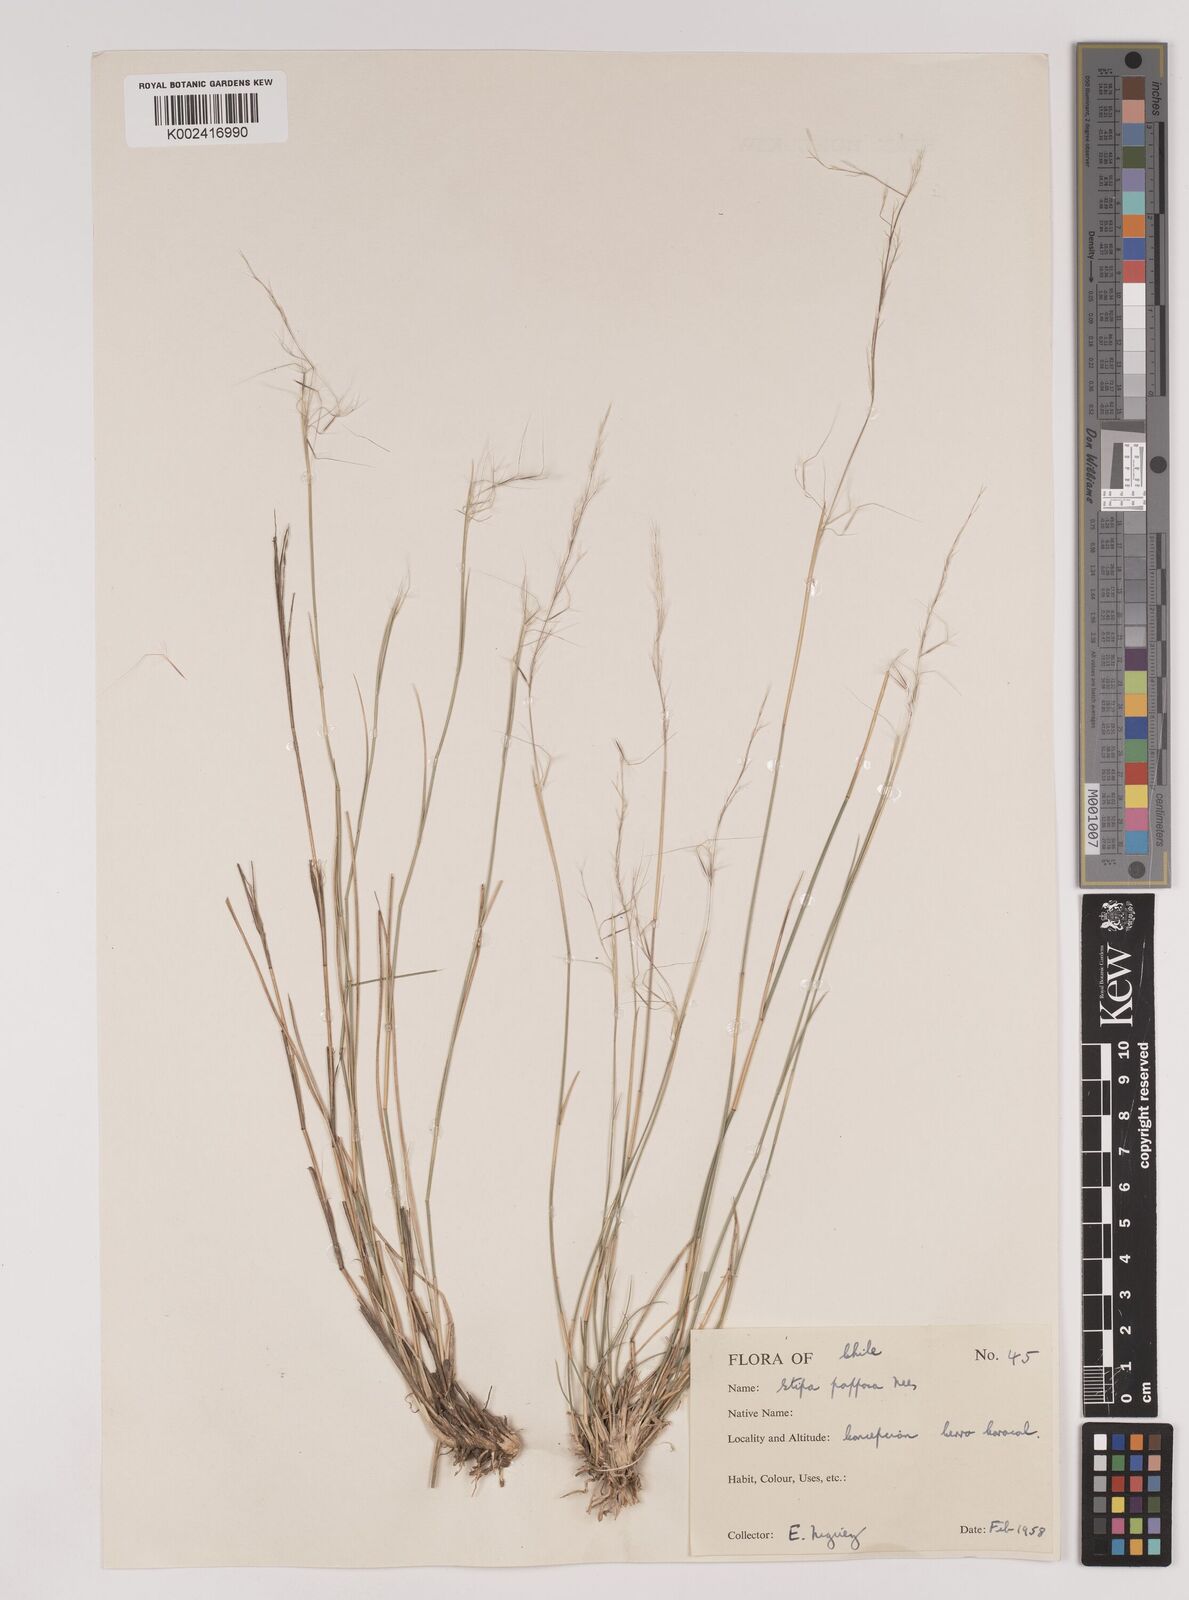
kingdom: Plantae
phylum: Tracheophyta
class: Liliopsida
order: Poales
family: Poaceae
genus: Jarava
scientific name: Jarava plumosa
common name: South american rice grass
